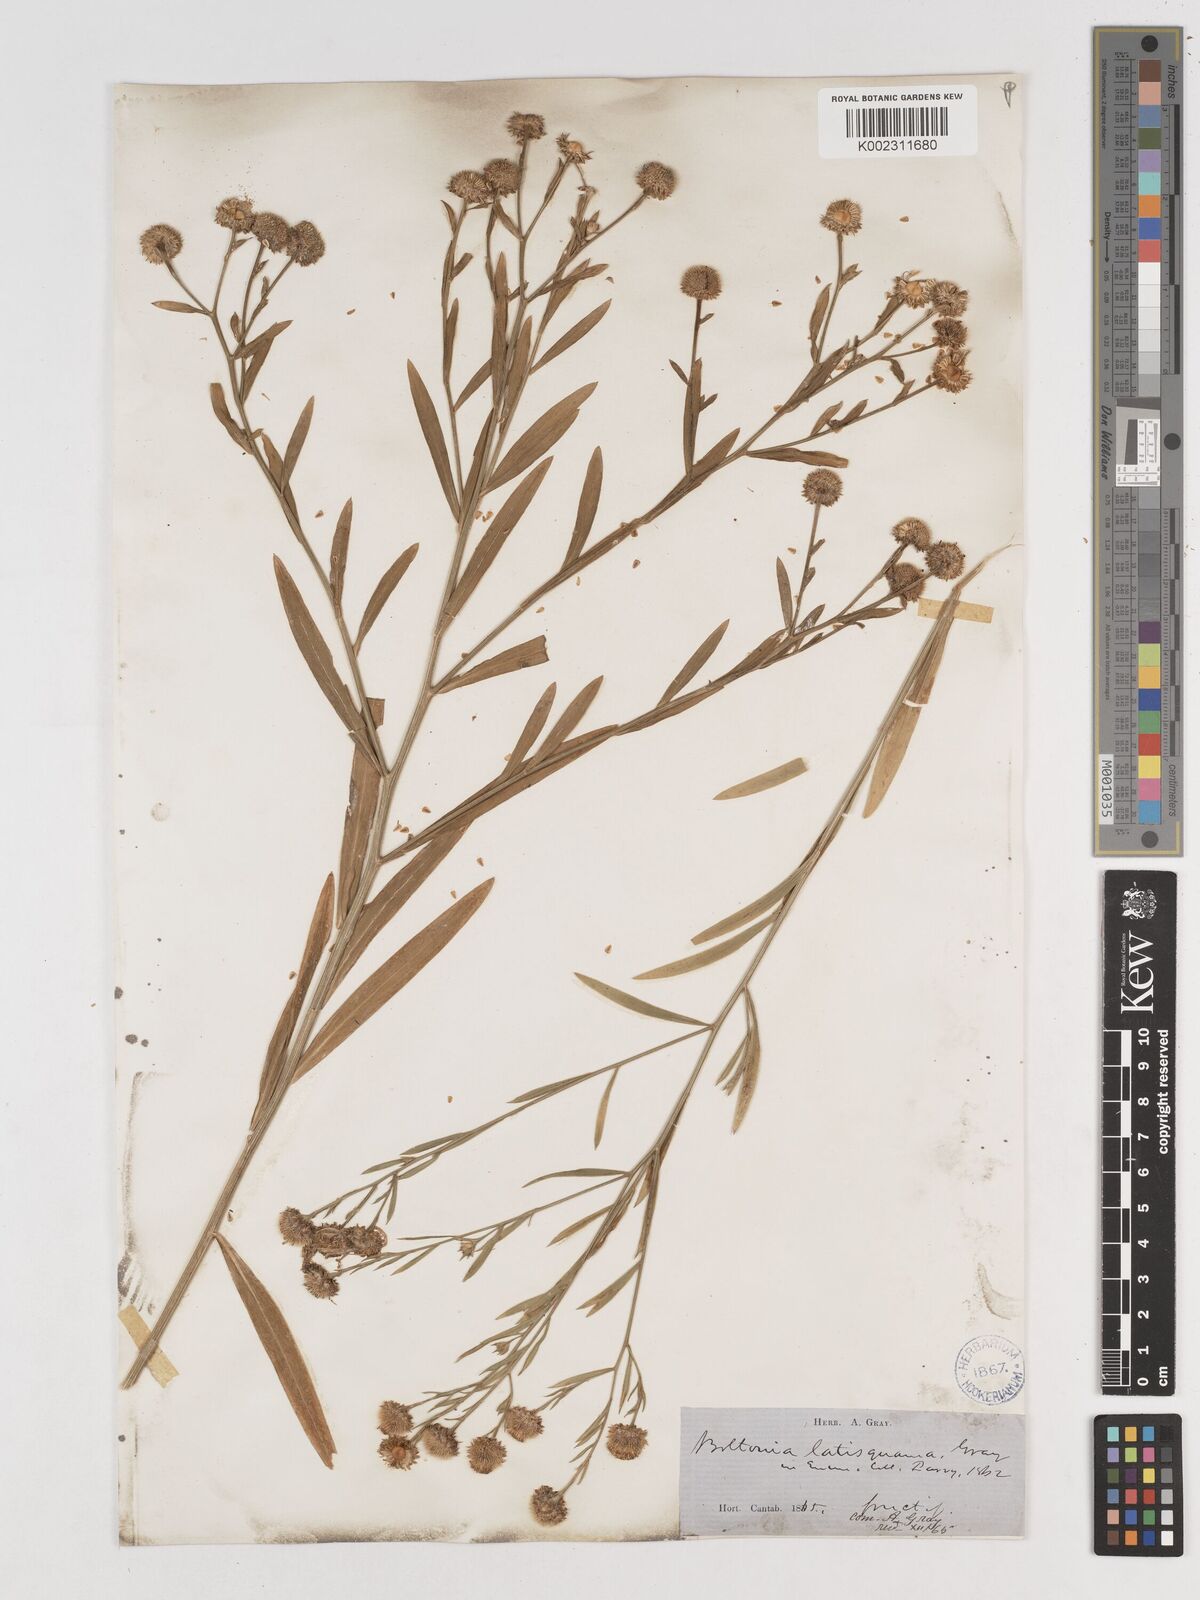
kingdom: Plantae
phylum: Tracheophyta
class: Magnoliopsida
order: Asterales
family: Asteraceae
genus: Boltonia
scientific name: Boltonia asteroides
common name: False chamomile
